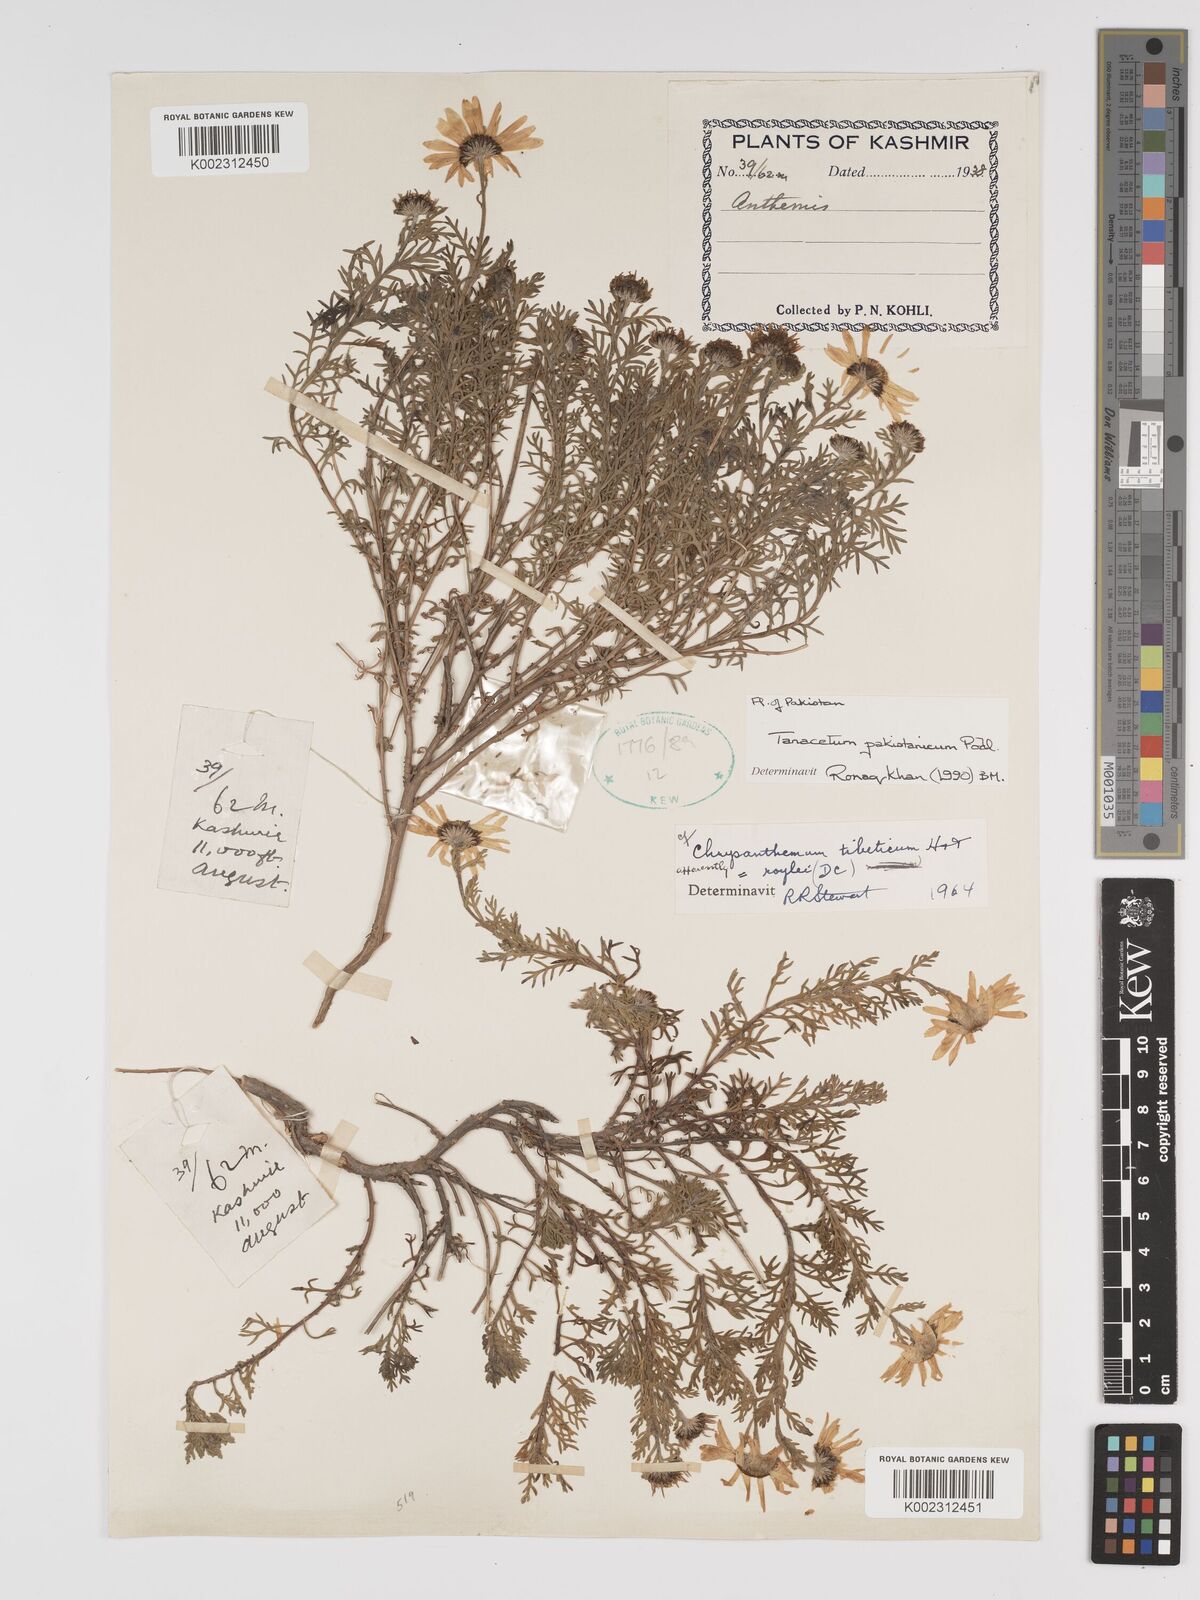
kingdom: Plantae
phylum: Tracheophyta
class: Magnoliopsida
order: Asterales
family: Asteraceae
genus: Tanacetum
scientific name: Tanacetum pakistanicum
